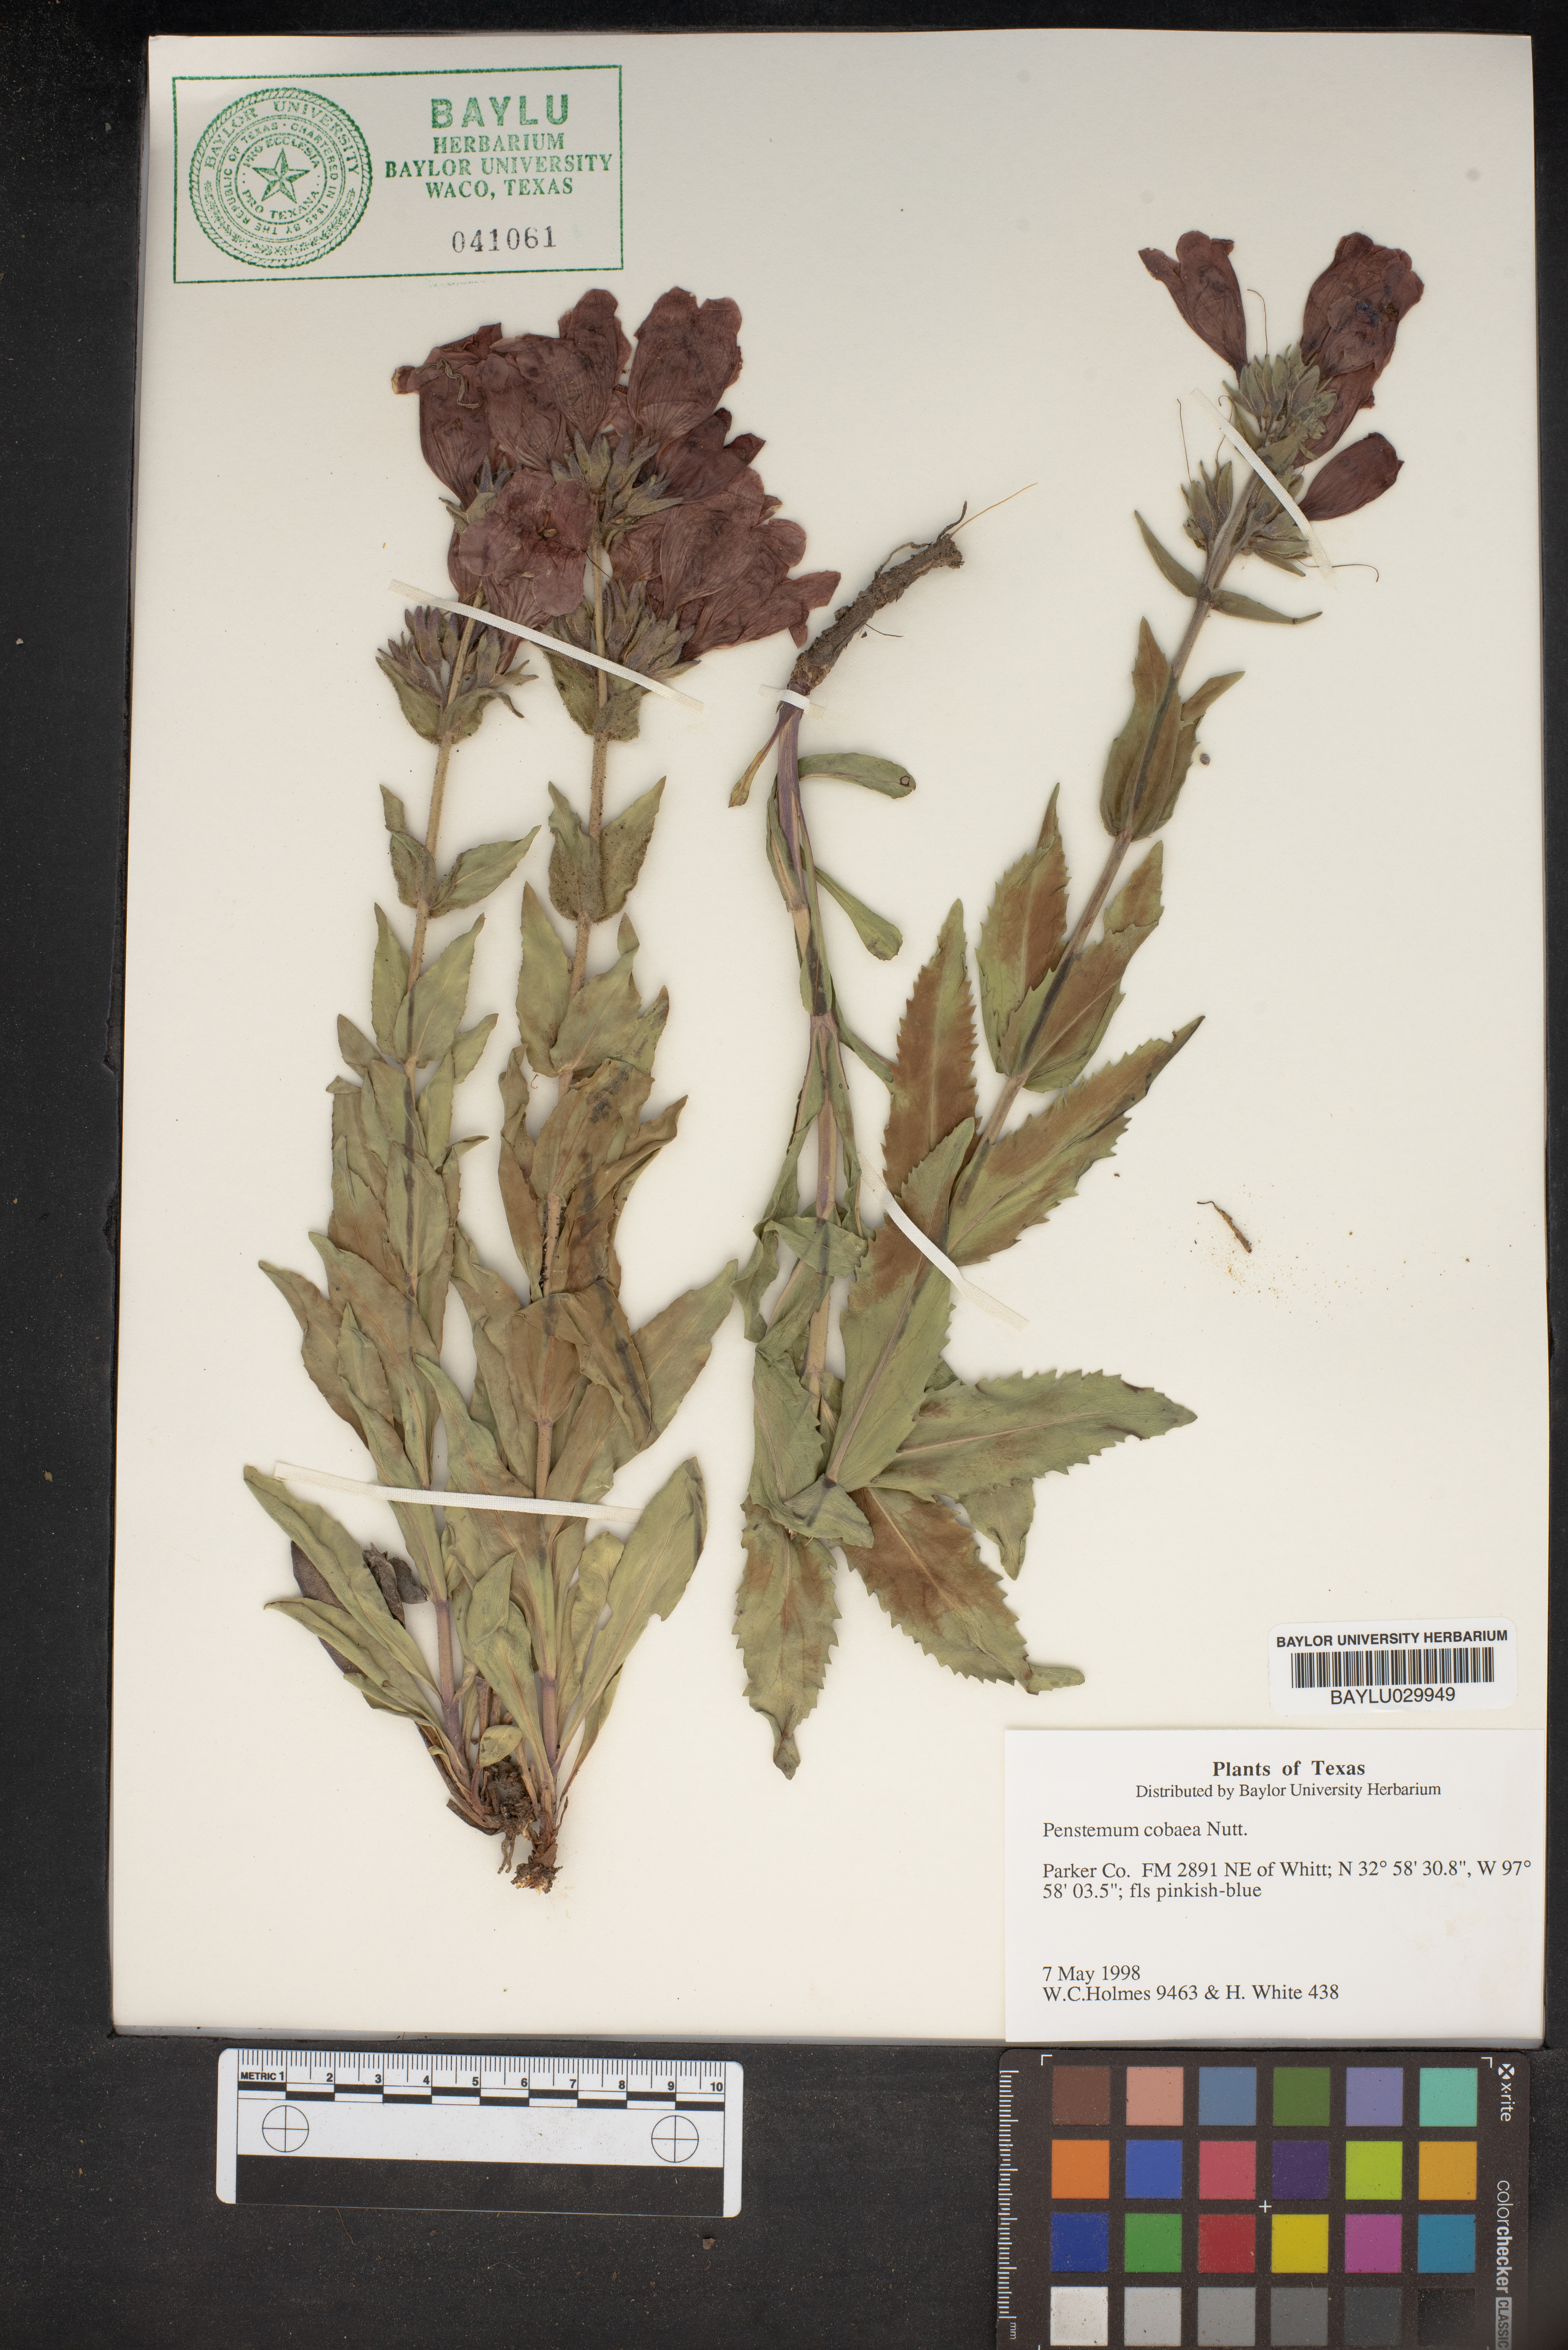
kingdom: Plantae
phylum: Tracheophyta
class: Magnoliopsida
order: Lamiales
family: Plantaginaceae
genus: Penstemon
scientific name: Penstemon cobaea
